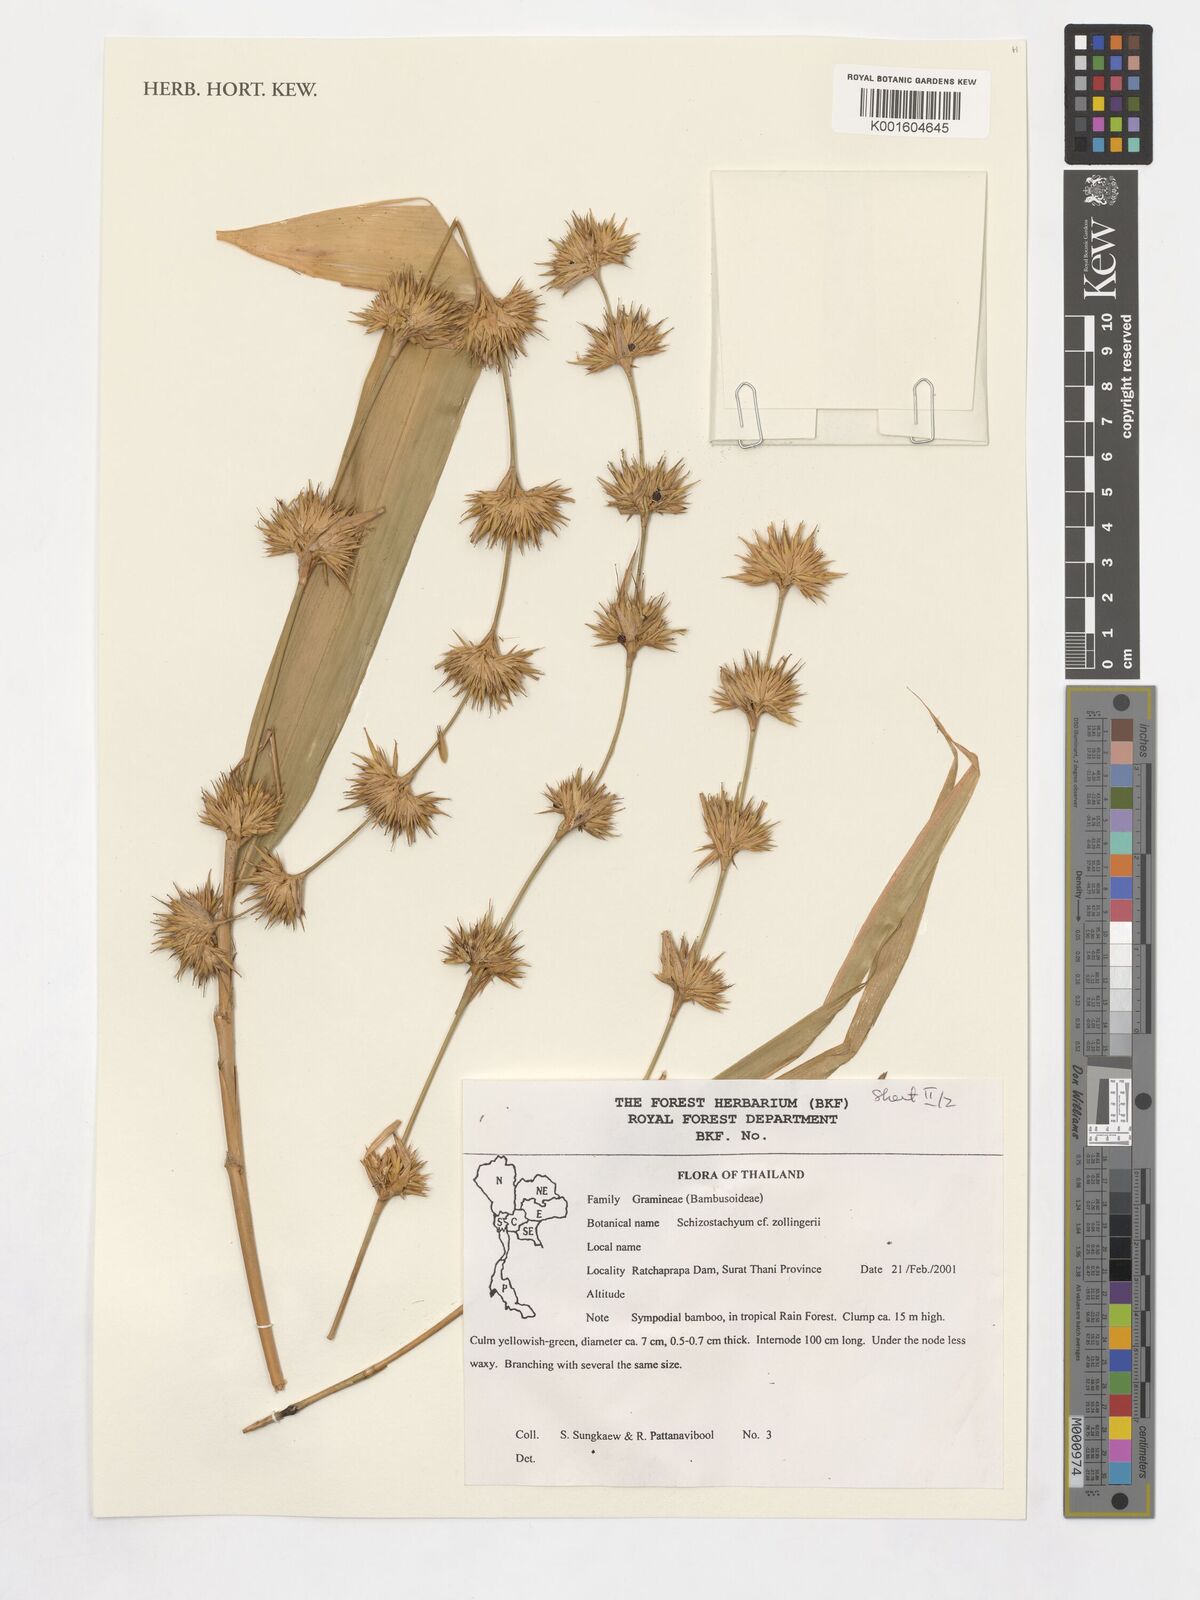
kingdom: Plantae
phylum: Tracheophyta
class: Liliopsida
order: Poales
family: Poaceae
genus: Schizostachyum
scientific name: Schizostachyum zollingeri
